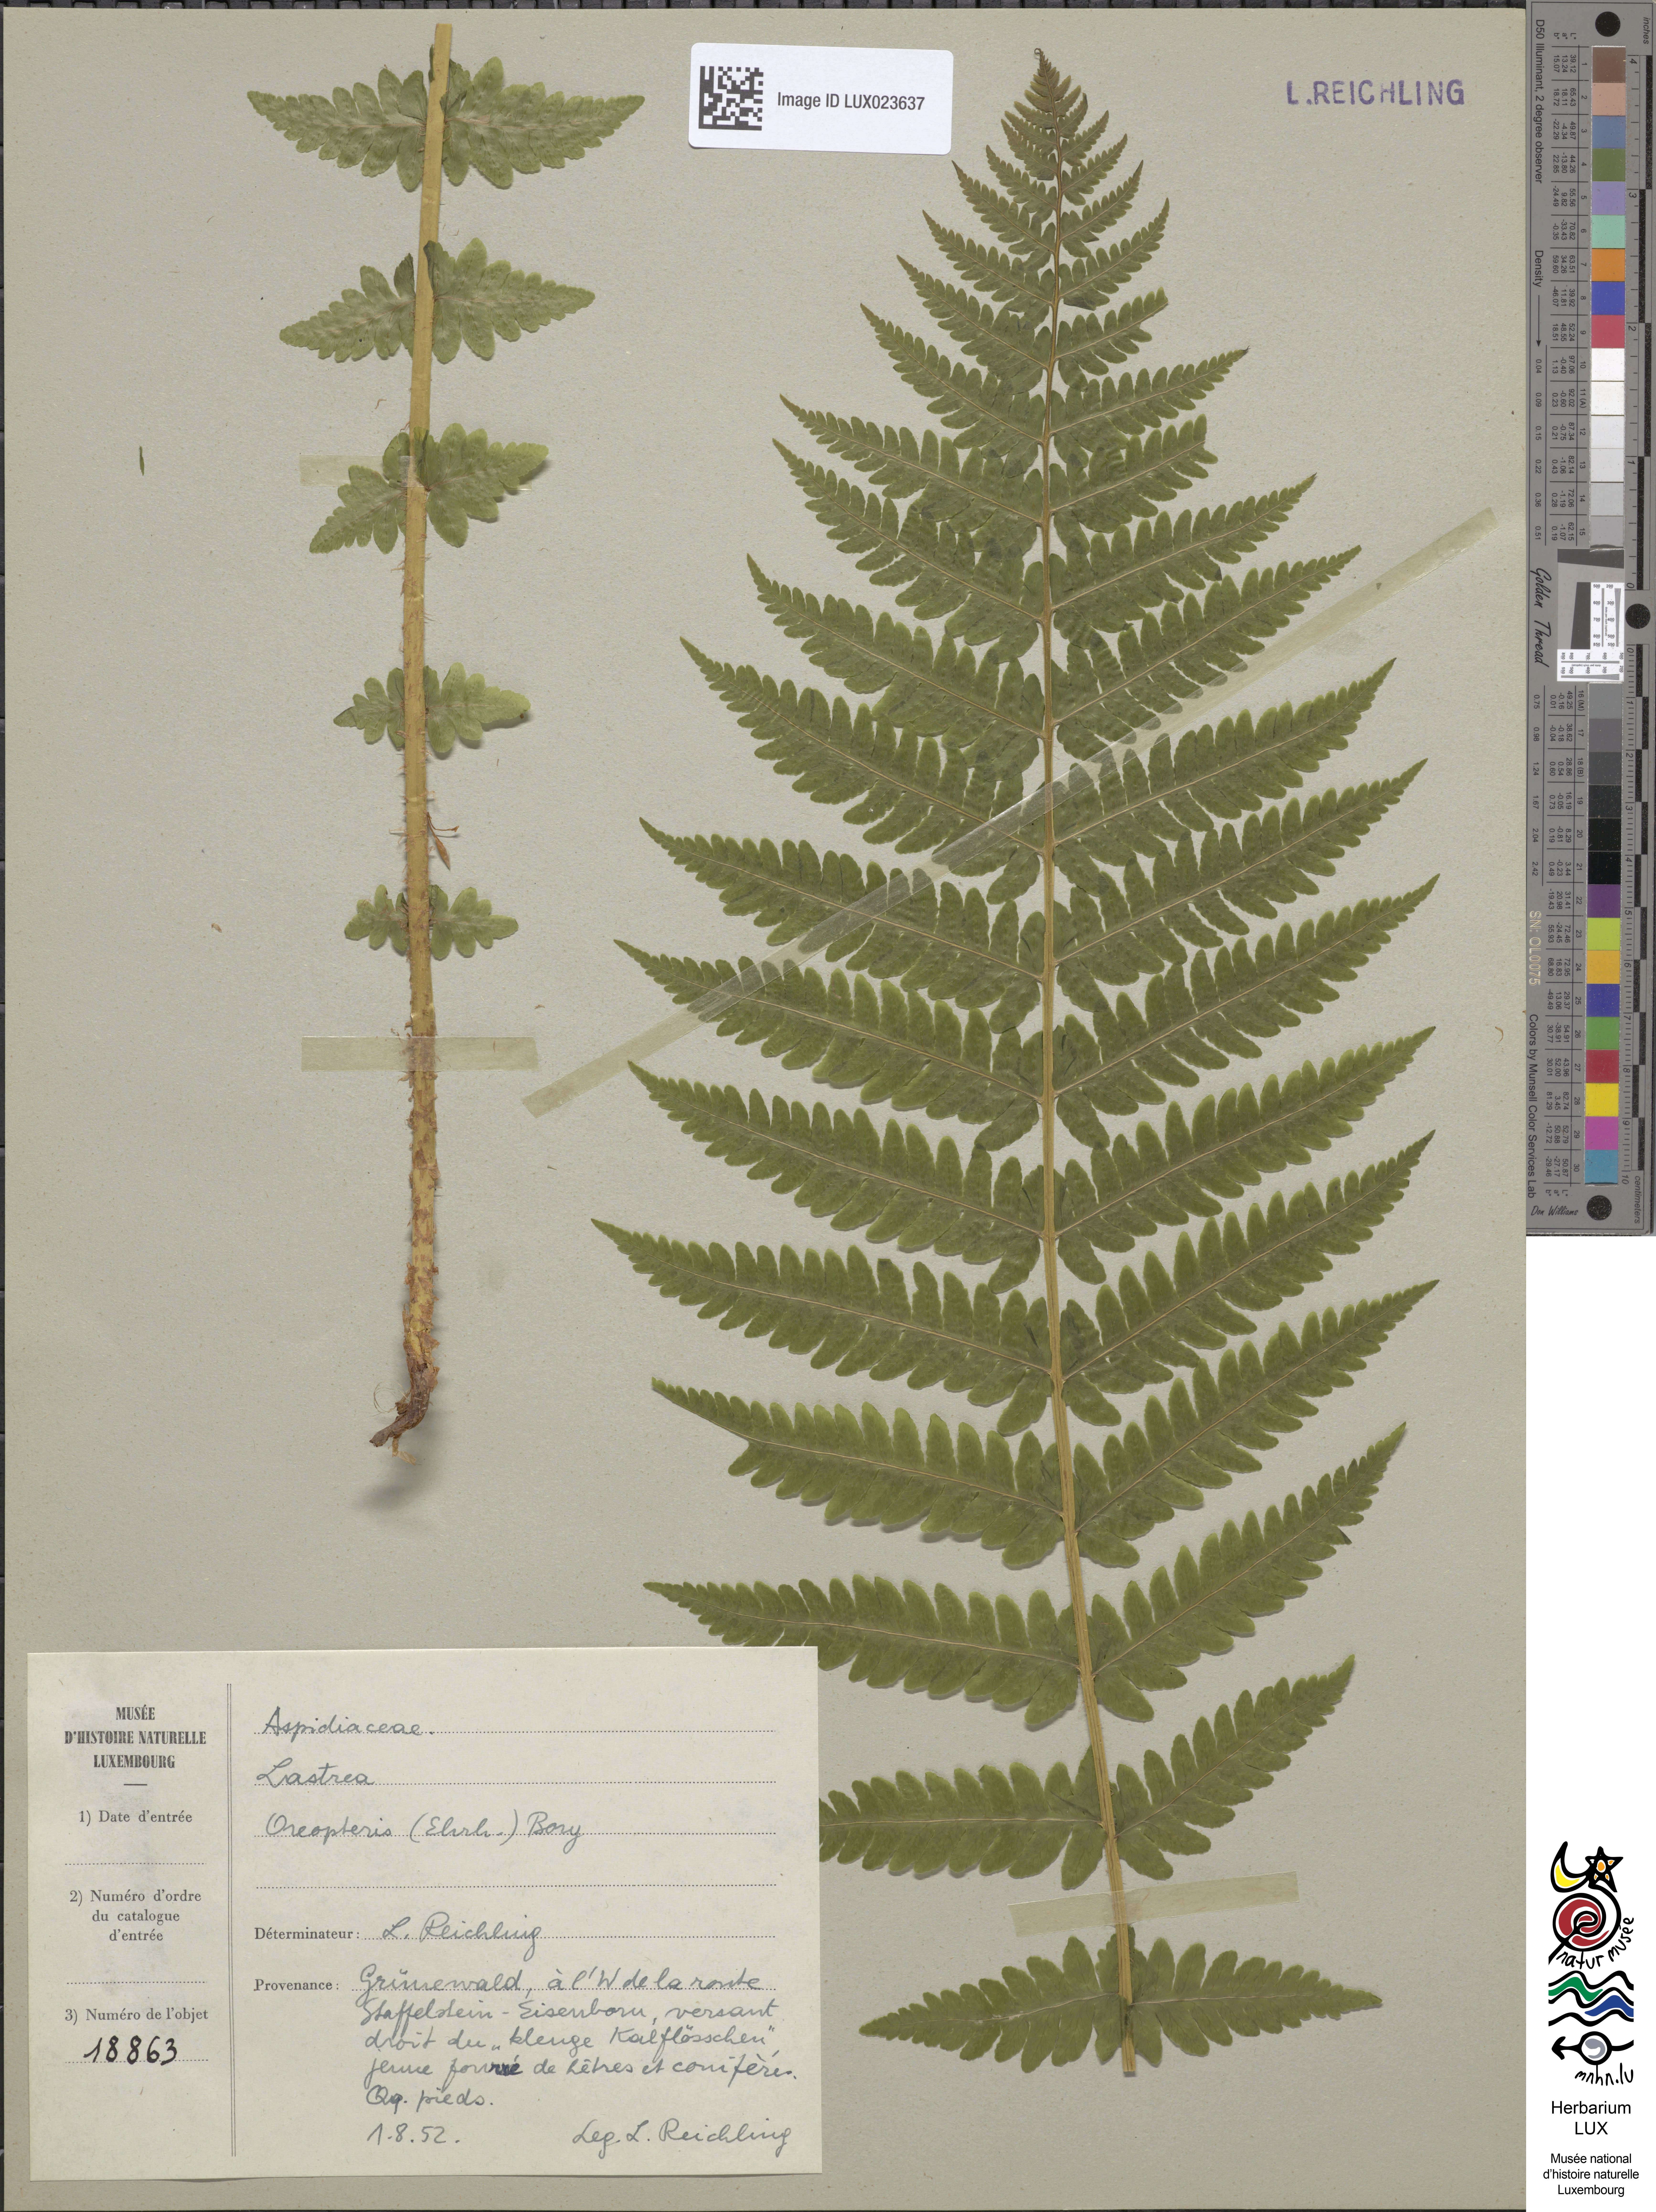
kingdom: Plantae
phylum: Tracheophyta
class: Polypodiopsida
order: Polypodiales
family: Thelypteridaceae
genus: Oreopteris
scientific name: Oreopteris limbosperma
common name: Lemon-scented fern
